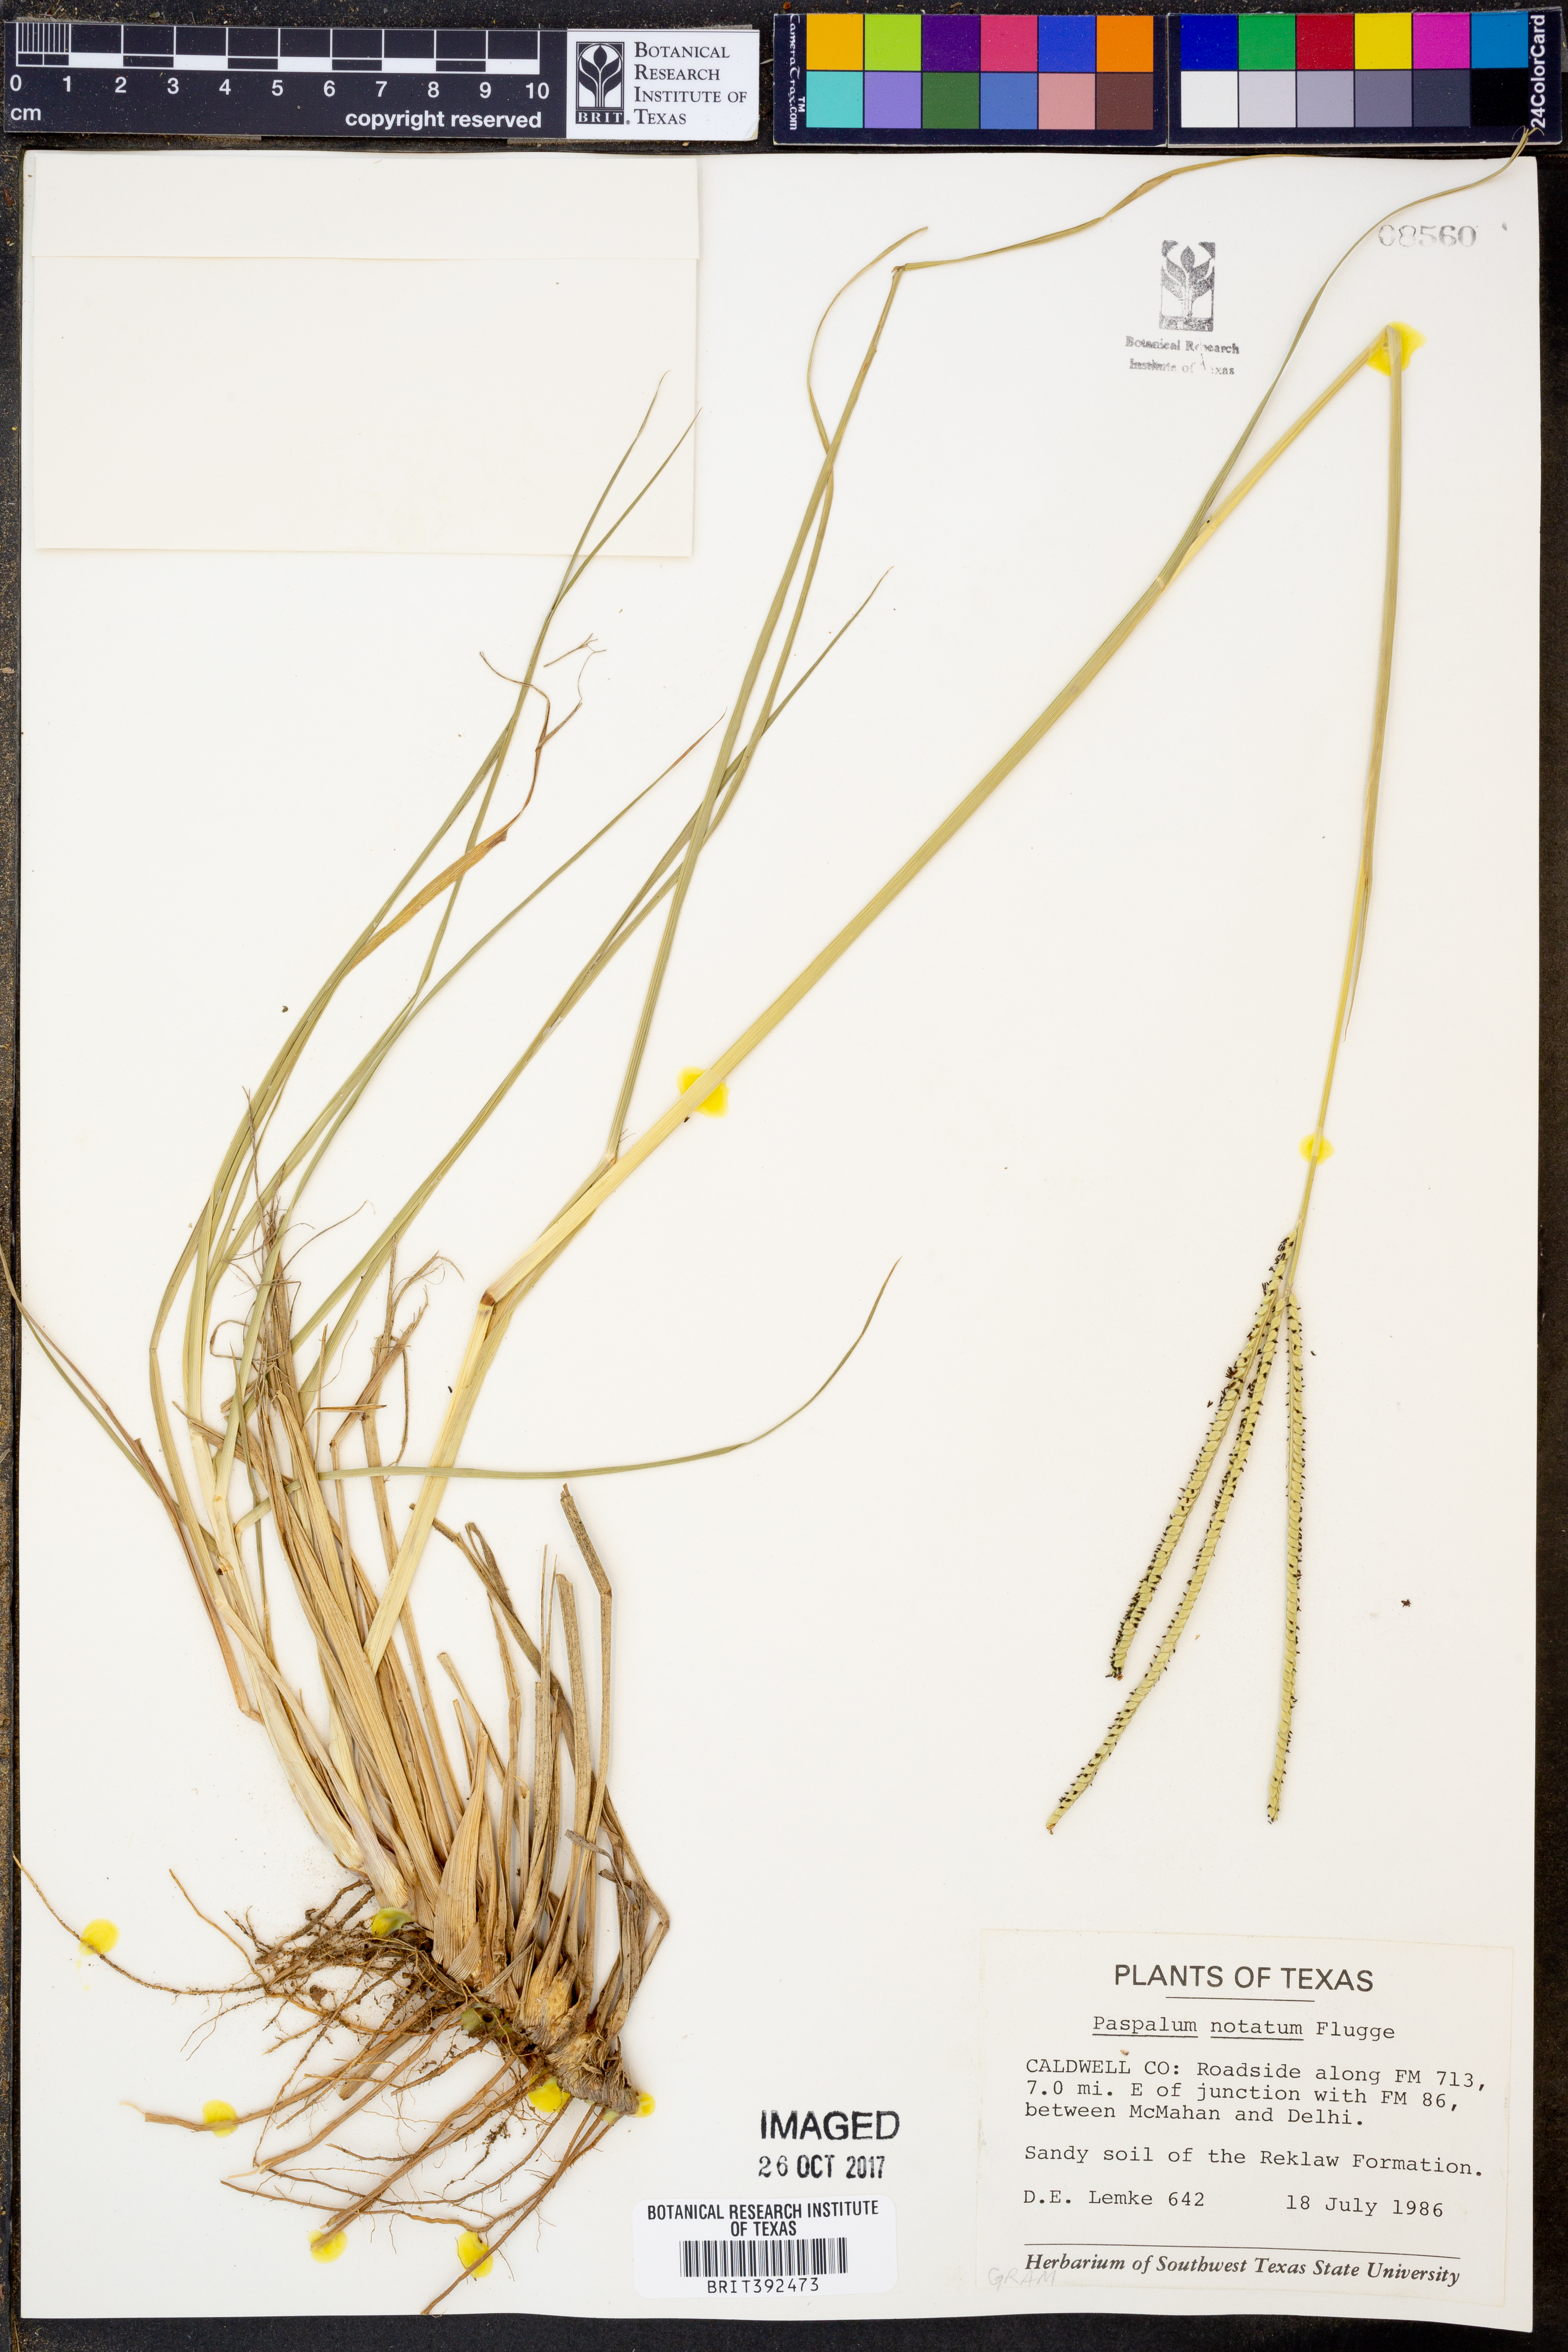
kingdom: Plantae
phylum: Tracheophyta
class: Liliopsida
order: Poales
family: Poaceae
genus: Paspalum
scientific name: Paspalum notatum
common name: Bahiagrass
